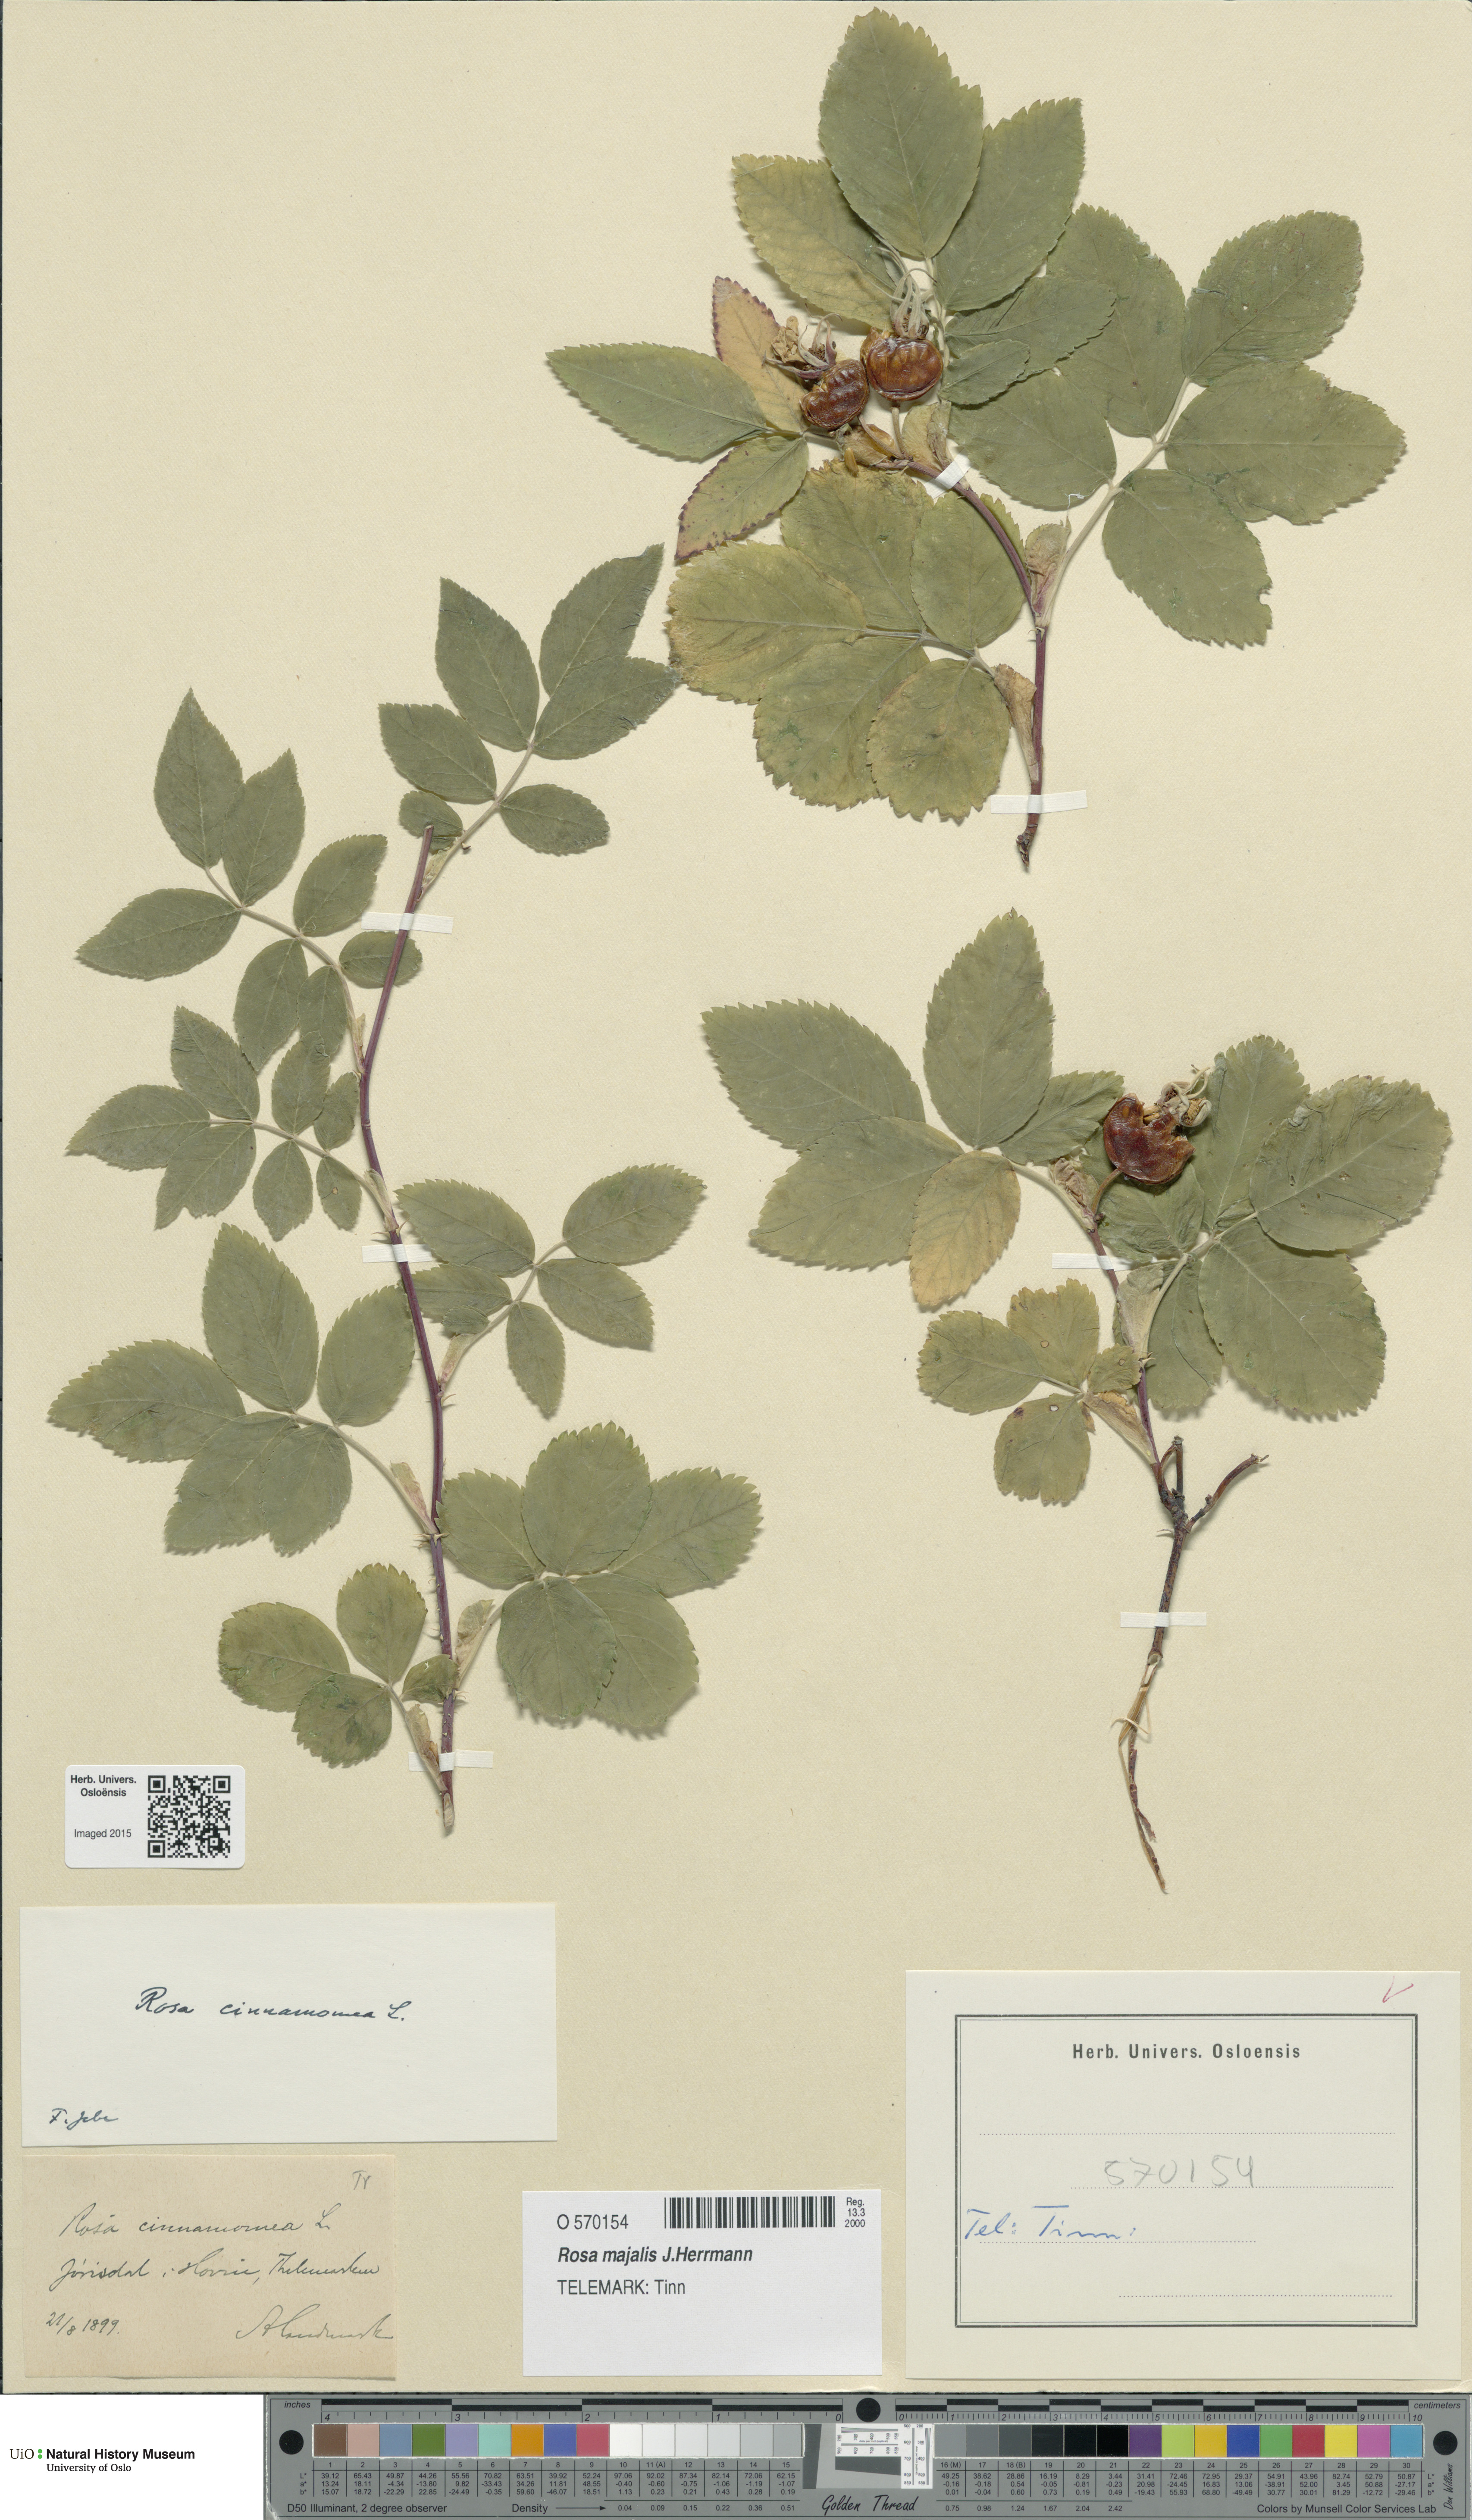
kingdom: Plantae
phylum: Tracheophyta
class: Magnoliopsida
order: Rosales
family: Rosaceae
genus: Rosa
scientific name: Rosa pendulina
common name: Alpine rose
